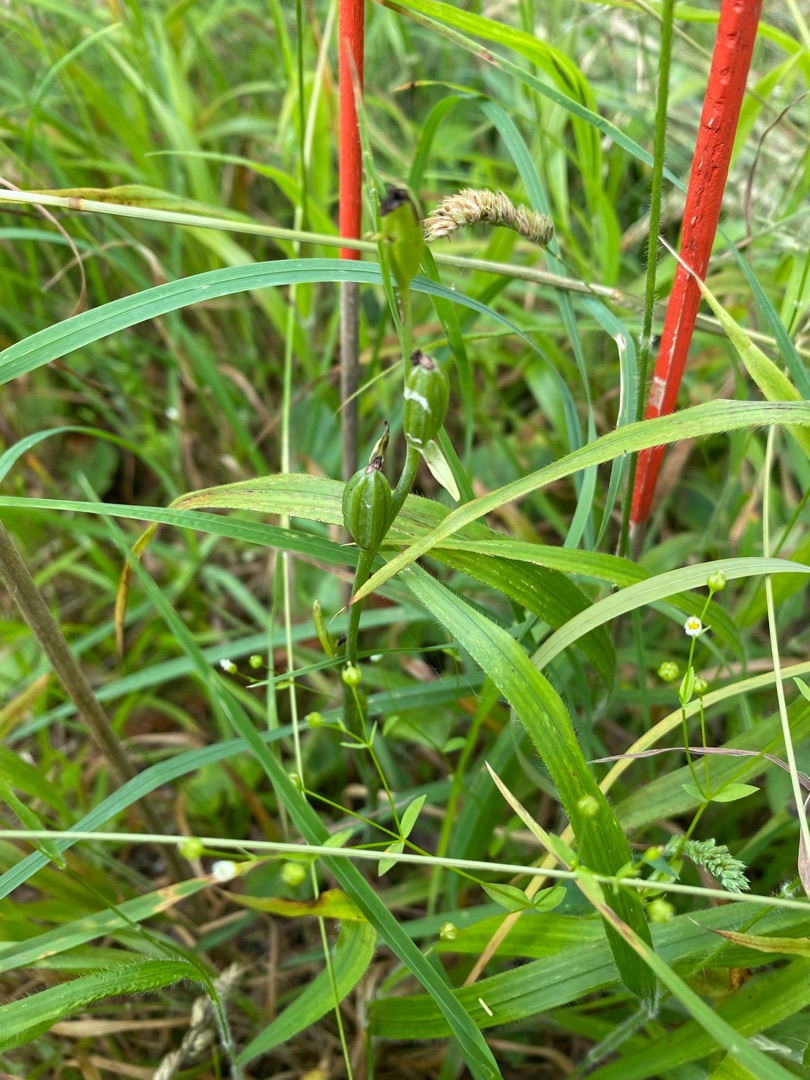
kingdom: Plantae
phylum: Tracheophyta
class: Liliopsida
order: Asparagales
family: Orchidaceae
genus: Ophrys
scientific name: Ophrys insectifera
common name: Flueblomst
